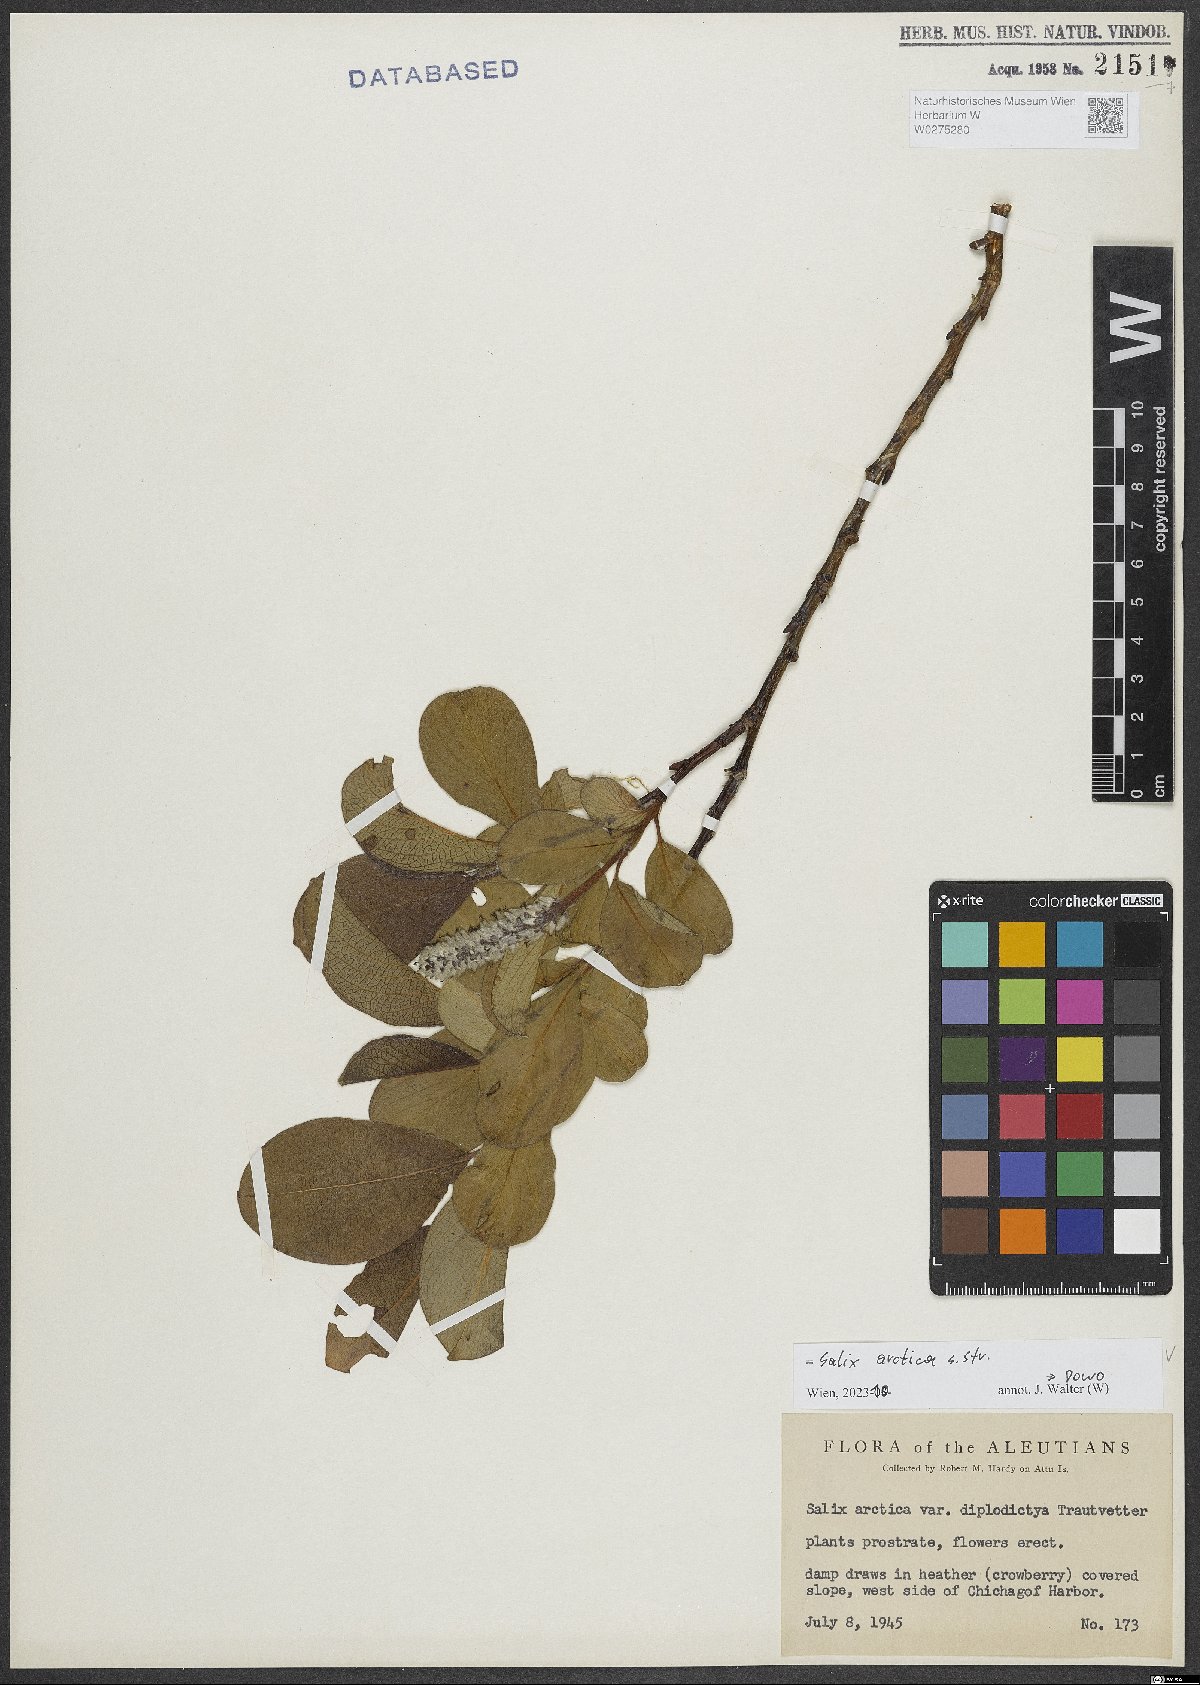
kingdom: Plantae
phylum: Tracheophyta
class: Magnoliopsida
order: Malpighiales
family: Salicaceae
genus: Salix
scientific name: Salix arctica
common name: Arctic willow
